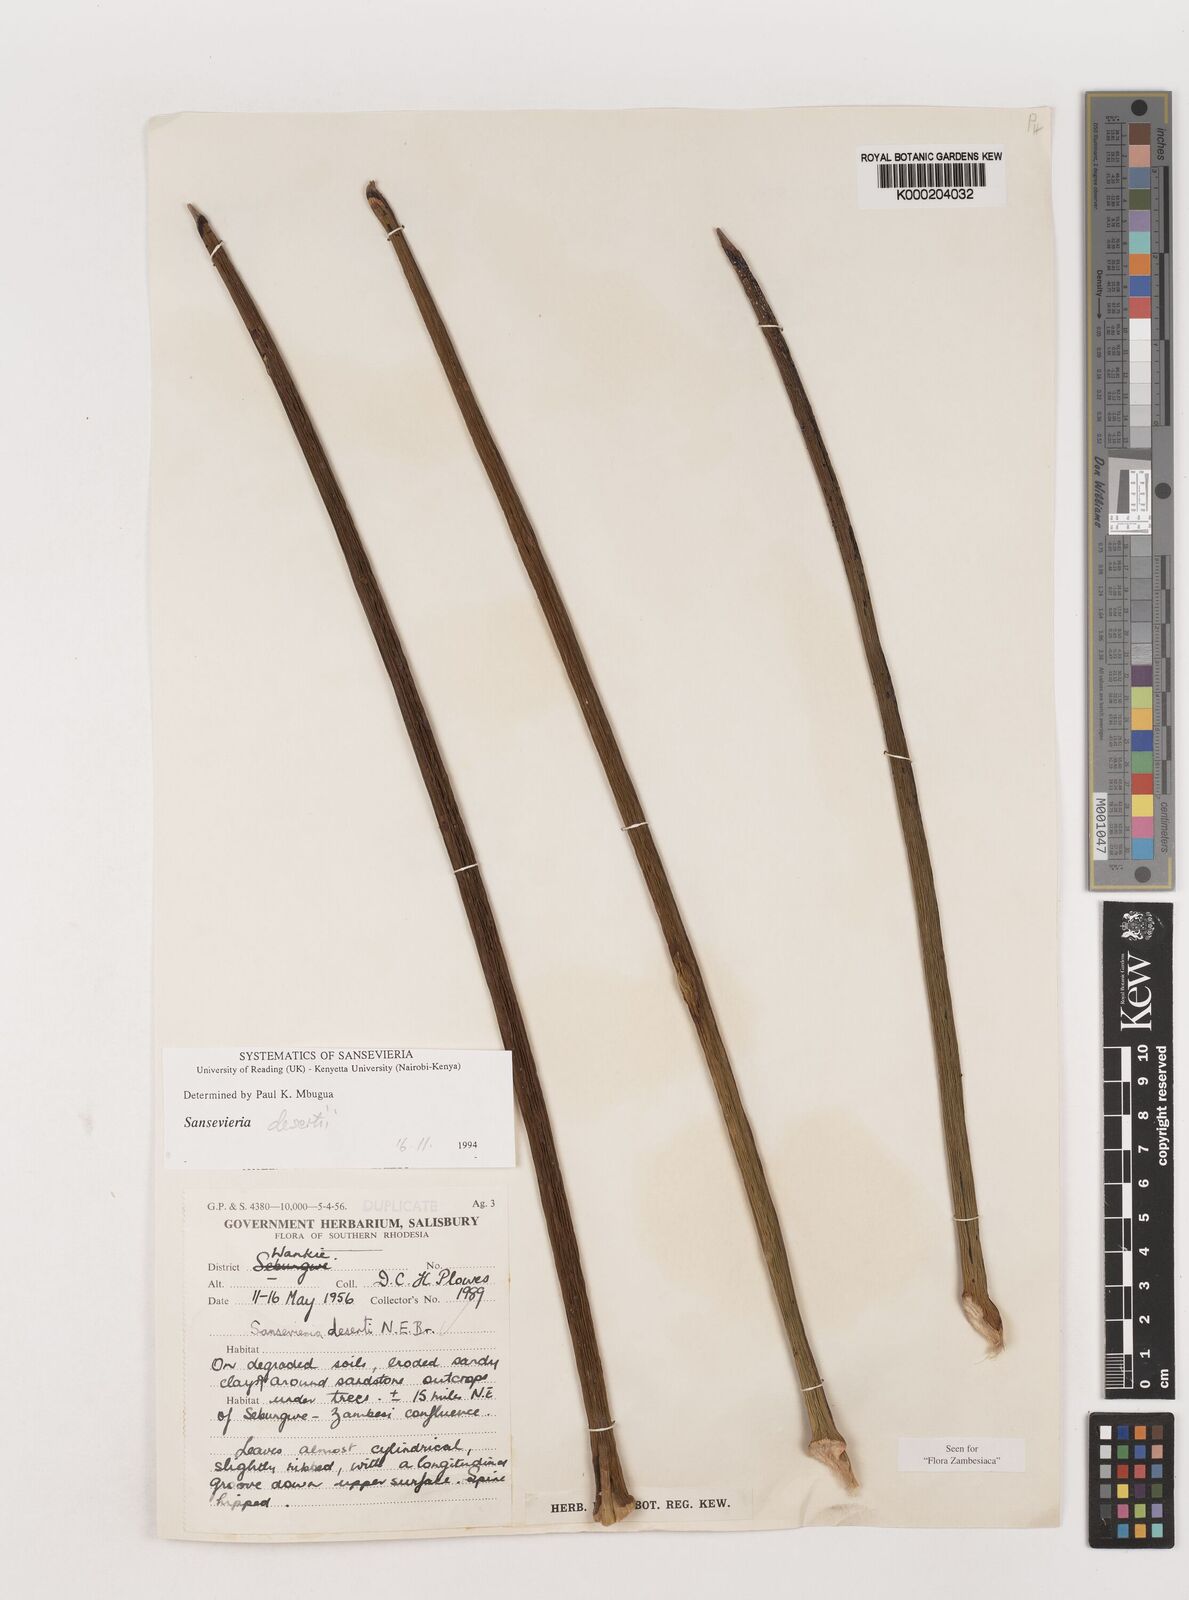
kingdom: Plantae
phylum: Tracheophyta
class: Liliopsida
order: Asparagales
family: Asparagaceae
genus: Dracaena
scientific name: Dracaena pearsonii
